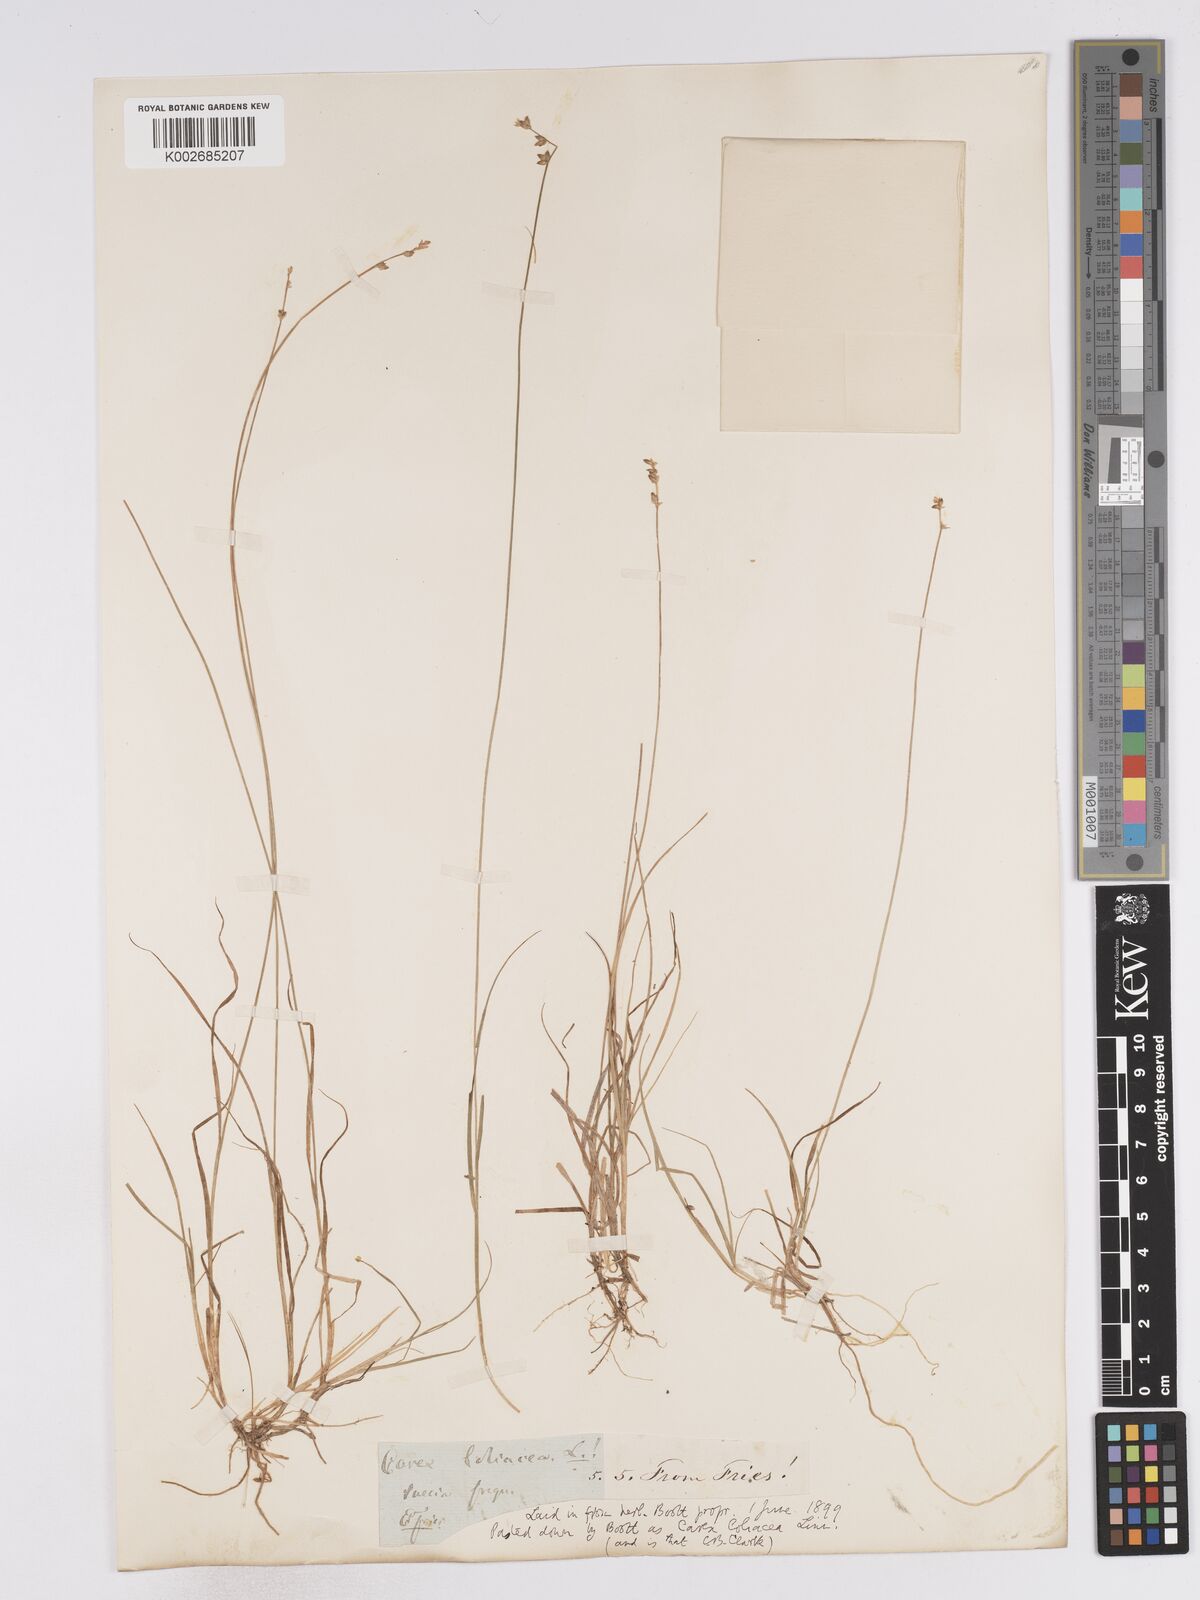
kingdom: Plantae
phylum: Tracheophyta
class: Liliopsida
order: Poales
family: Cyperaceae
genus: Carex
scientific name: Carex loliacea
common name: Ryegrass sedge
